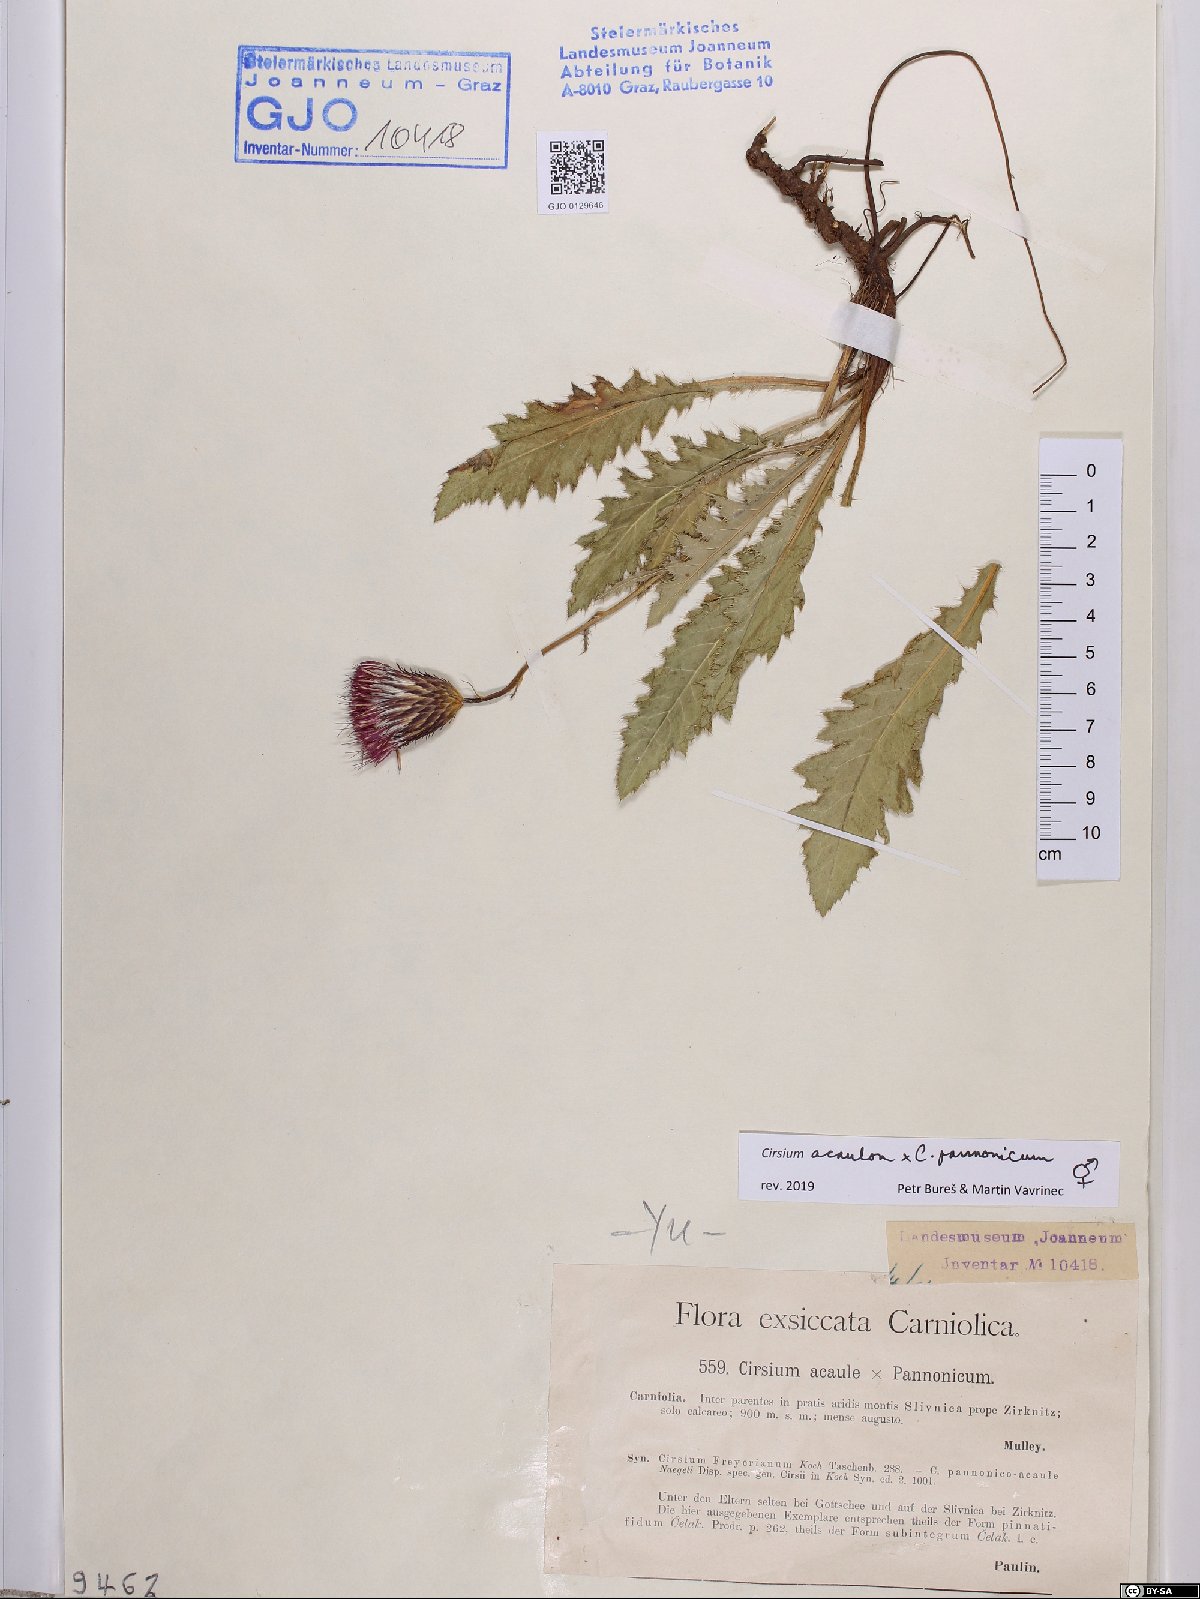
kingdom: Plantae
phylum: Tracheophyta
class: Magnoliopsida
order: Asterales
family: Asteraceae
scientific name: Asteraceae
